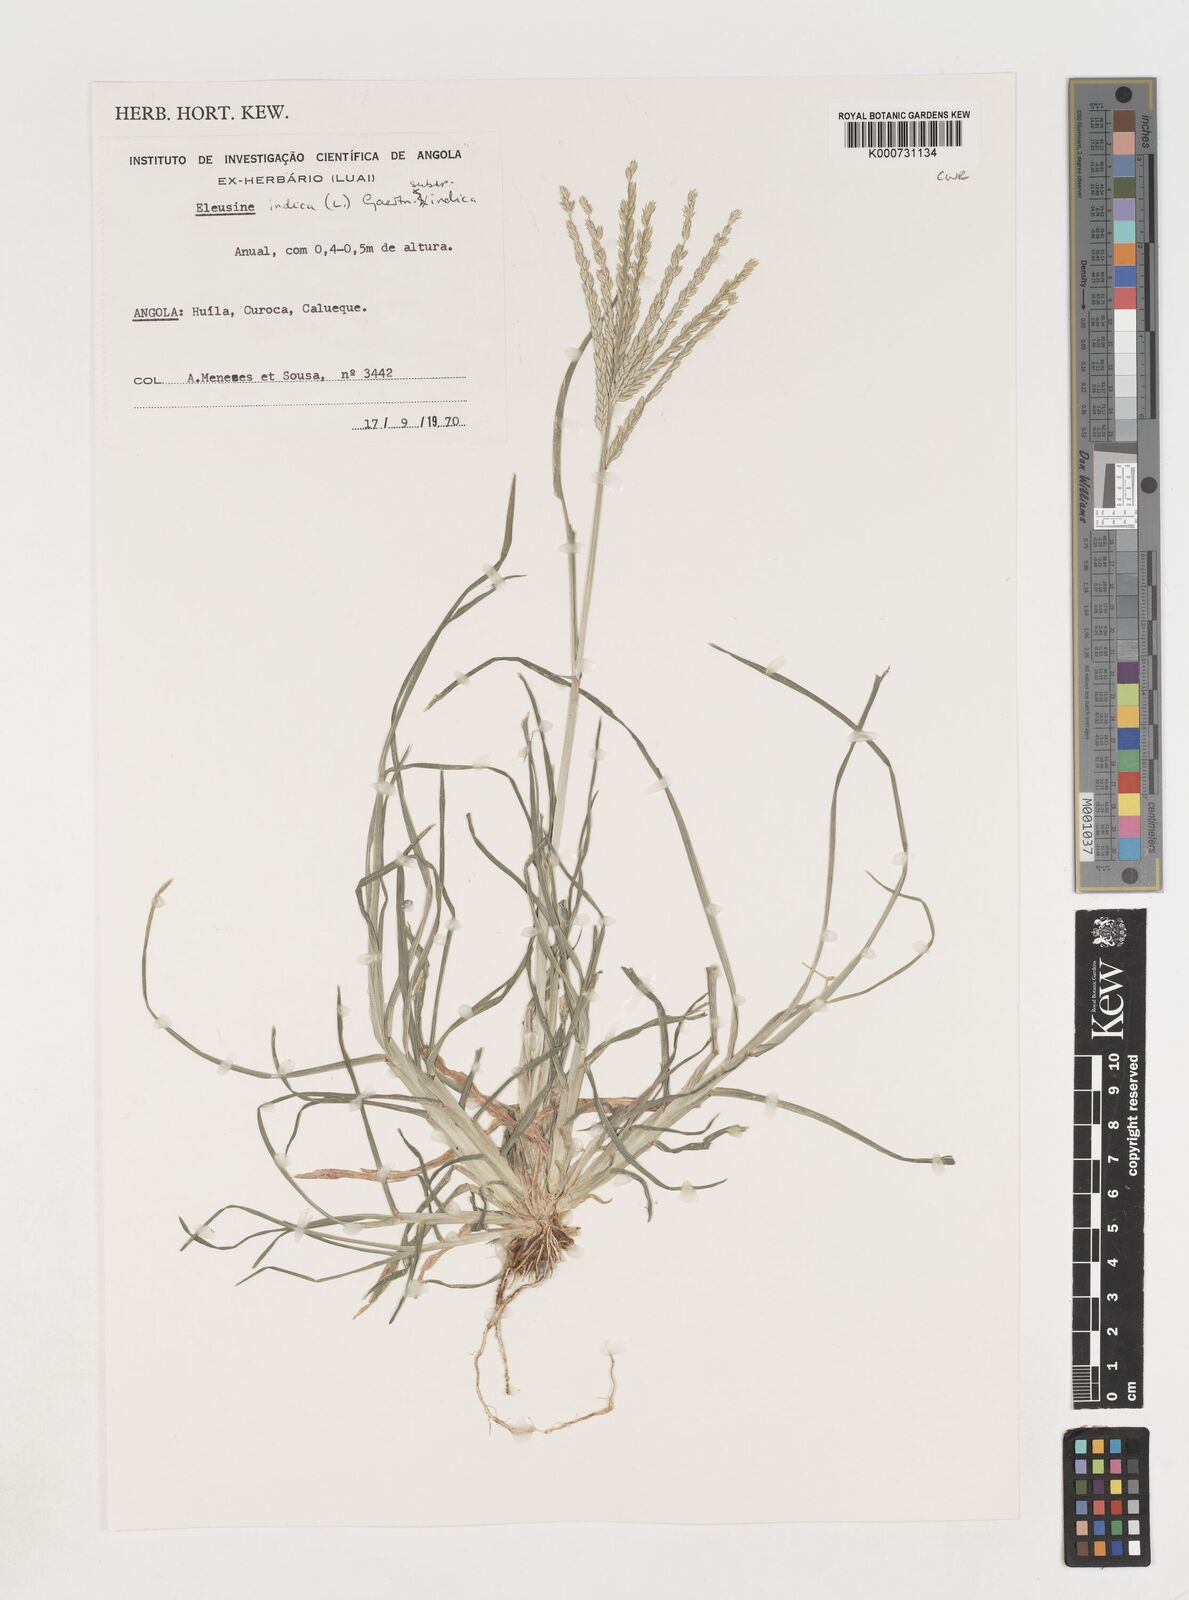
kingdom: Plantae
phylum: Tracheophyta
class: Liliopsida
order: Poales
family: Poaceae
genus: Eleusine
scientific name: Eleusine indica
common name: Yard-grass
